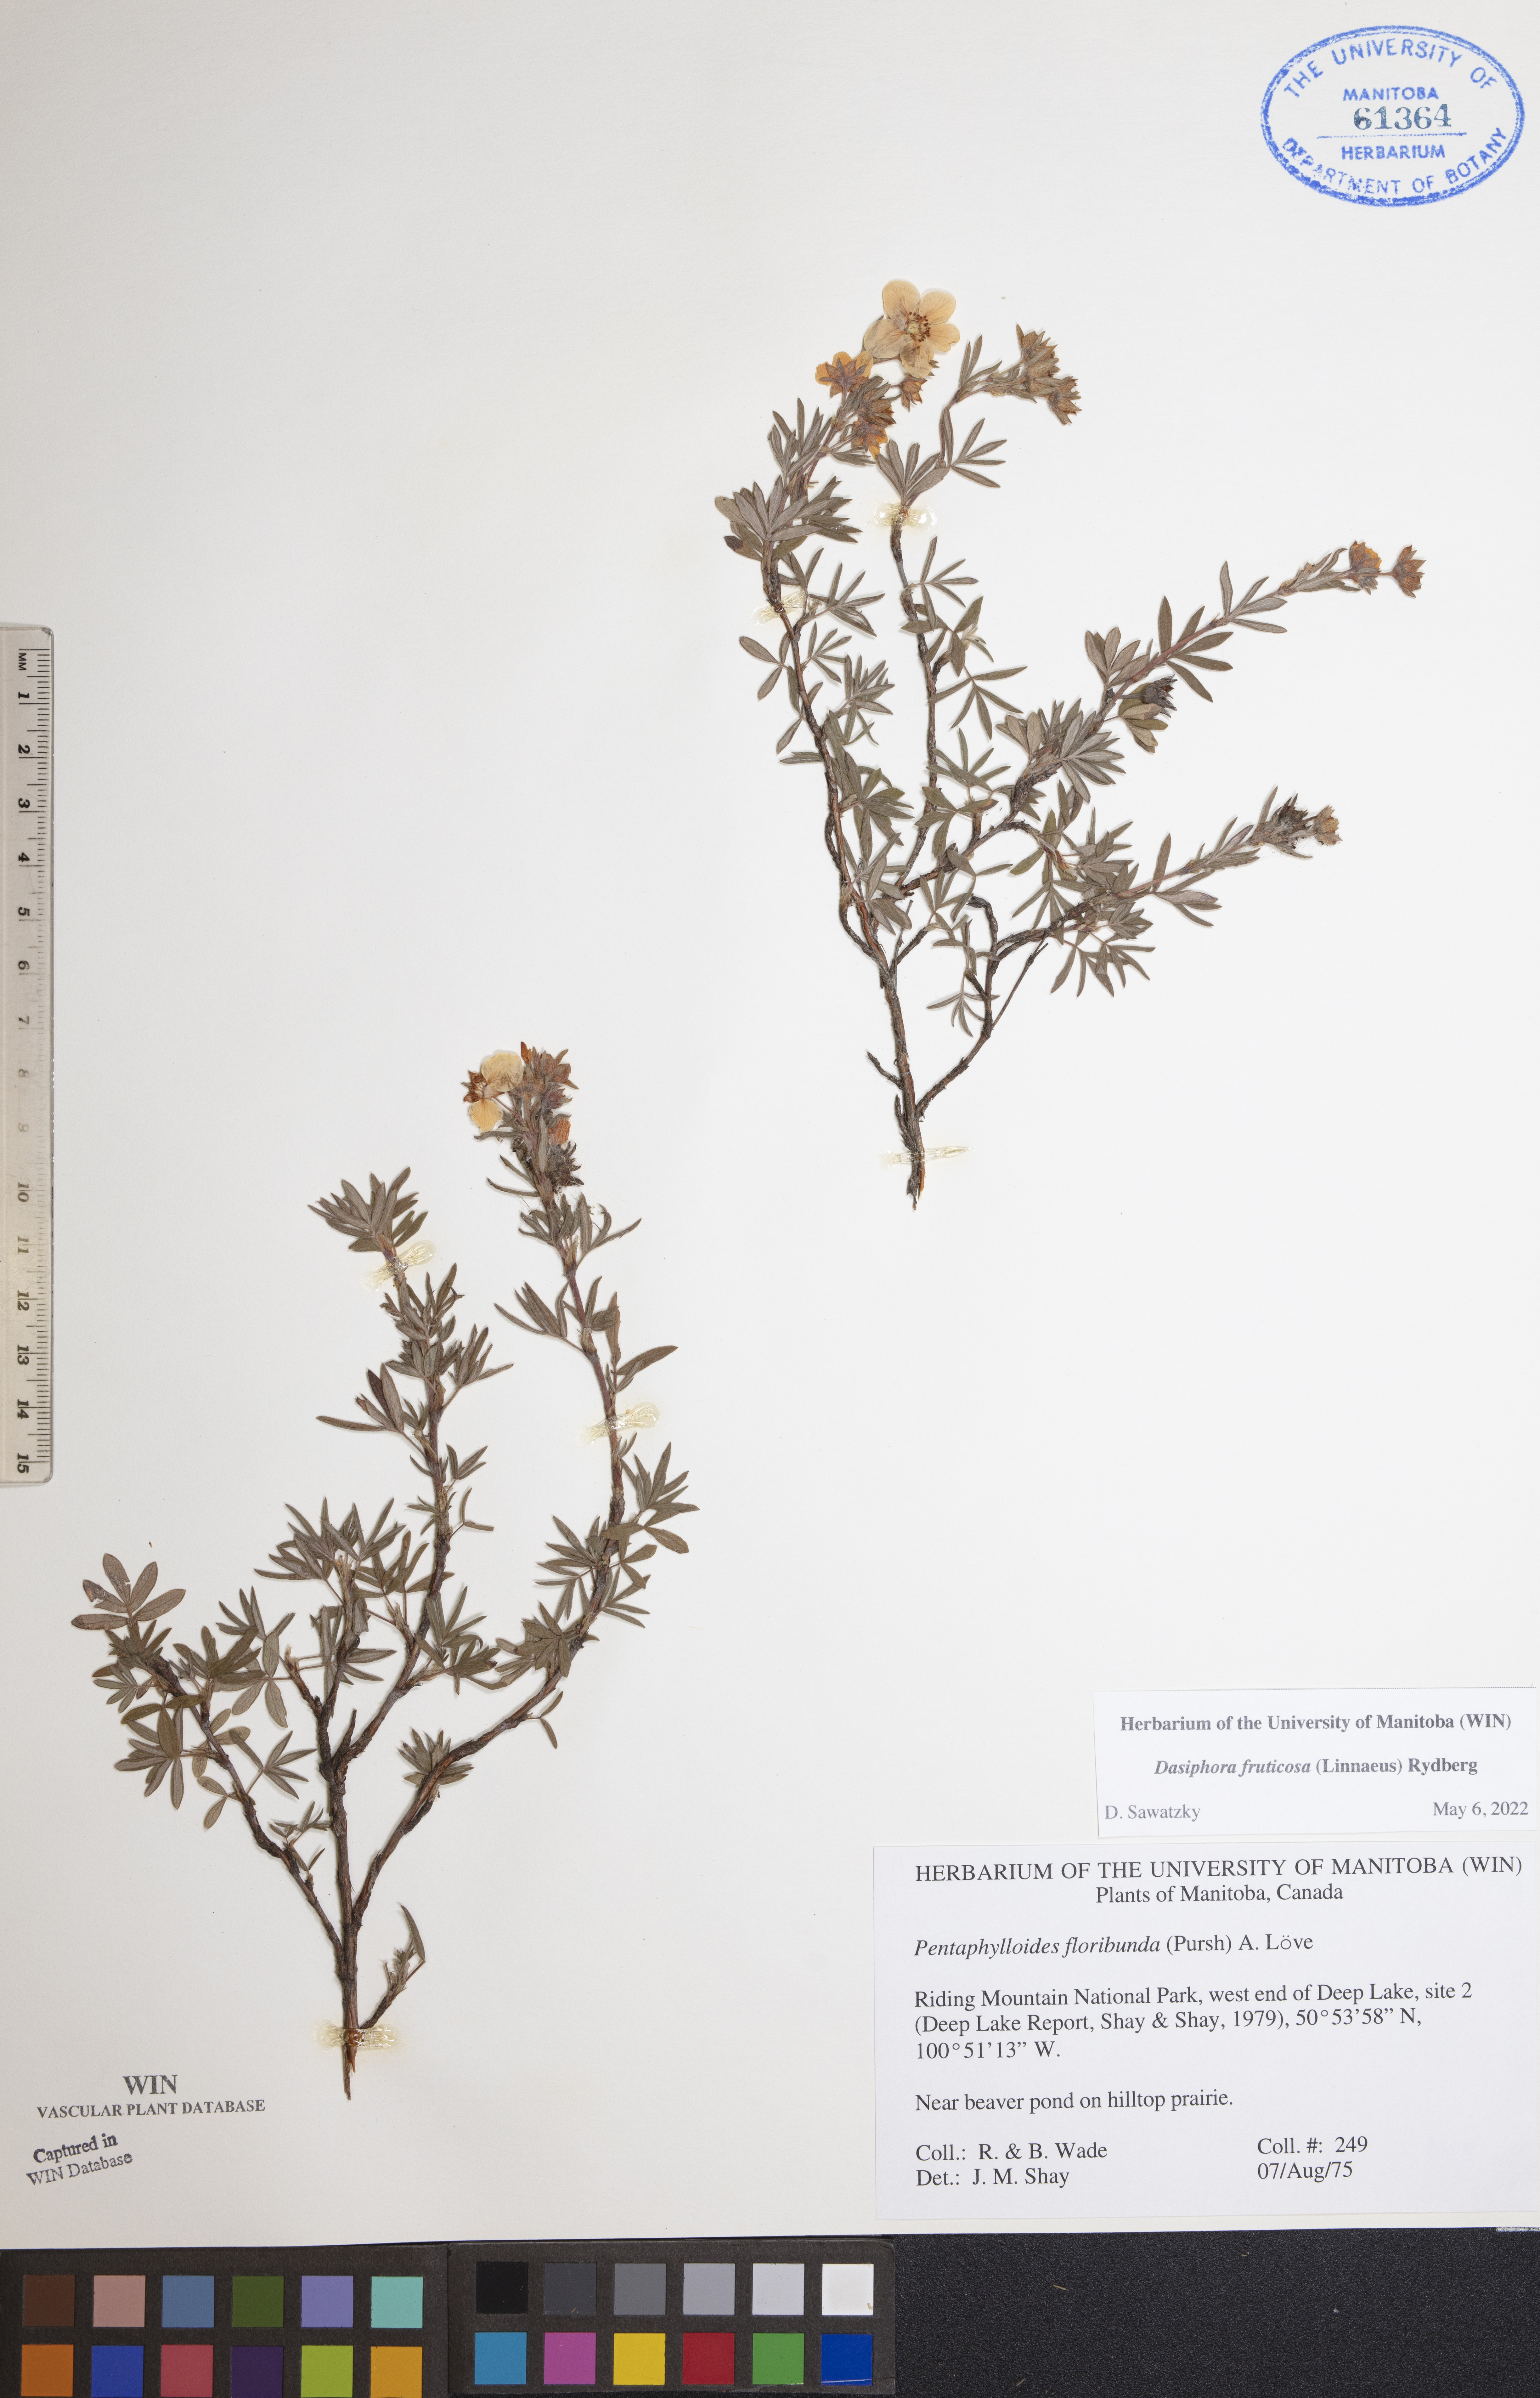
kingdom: Plantae
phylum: Tracheophyta
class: Magnoliopsida
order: Rosales
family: Rosaceae
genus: Dasiphora
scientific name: Dasiphora fruticosa
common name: Shrubby cinquefoil
